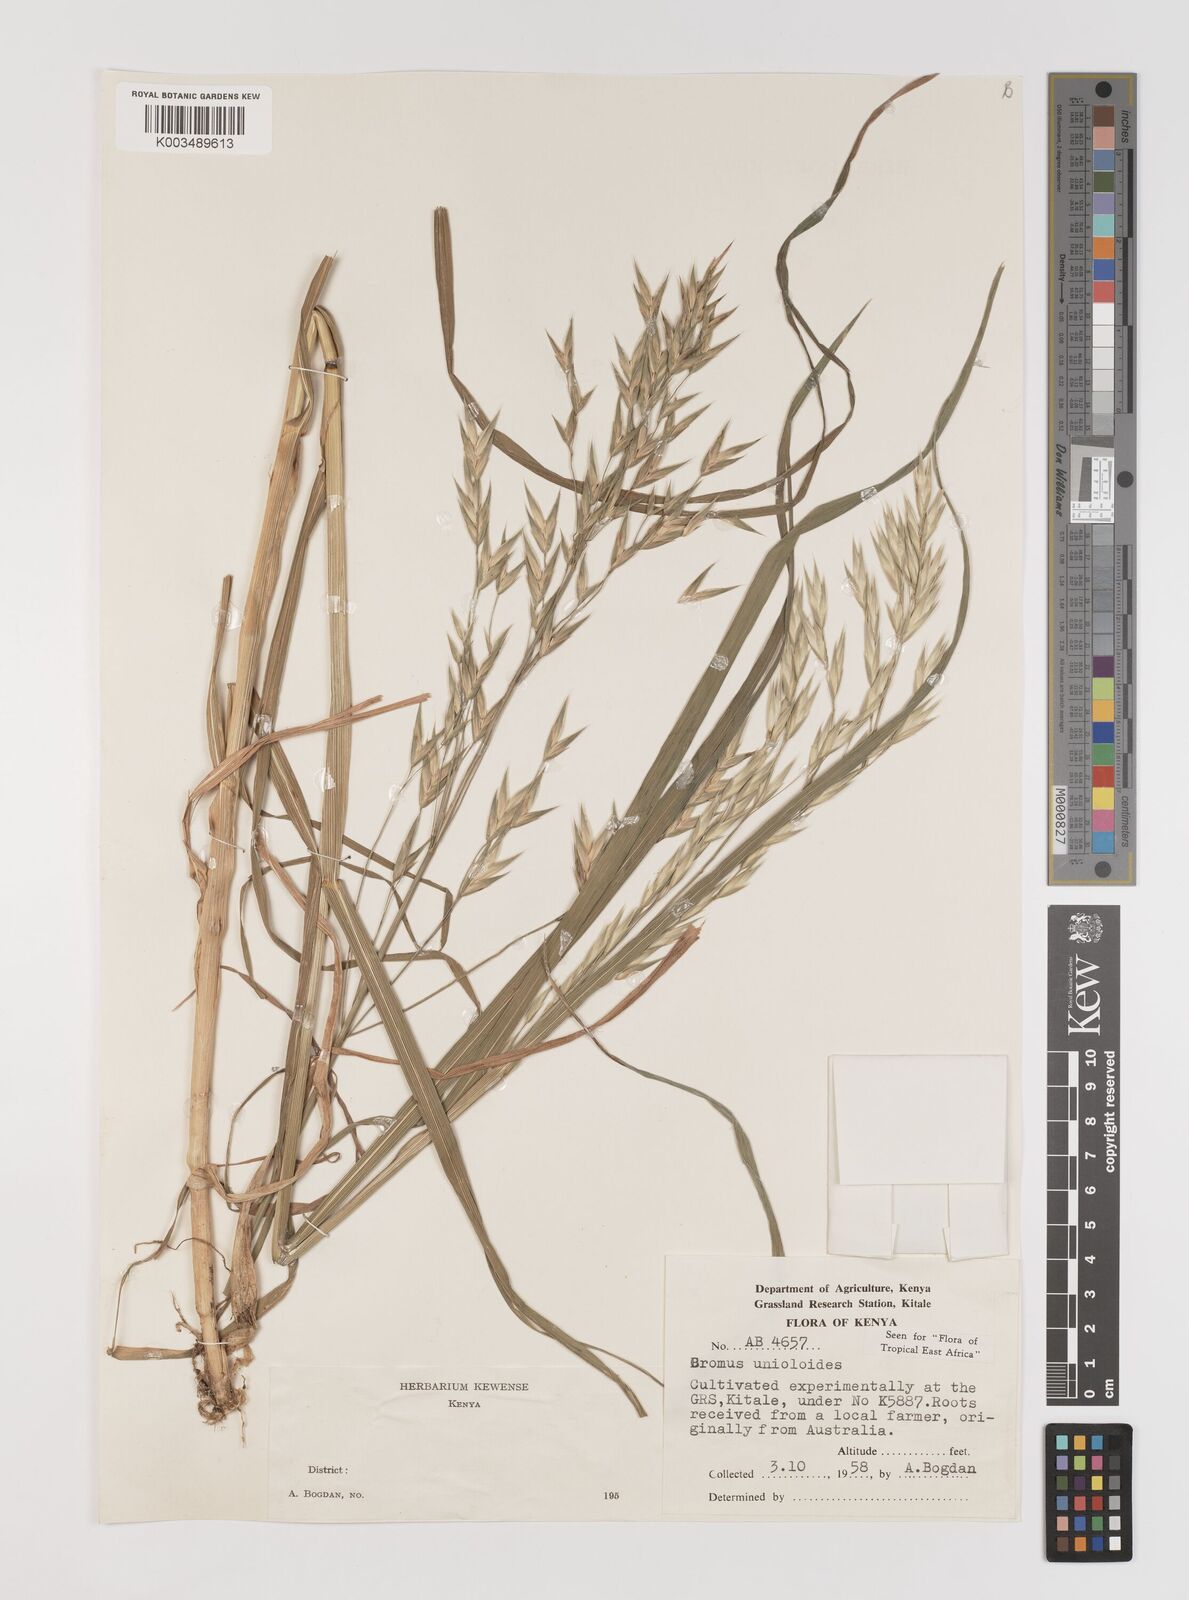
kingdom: Plantae
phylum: Tracheophyta
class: Liliopsida
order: Poales
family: Poaceae
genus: Bromus
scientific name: Bromus catharticus
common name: Rescuegrass
